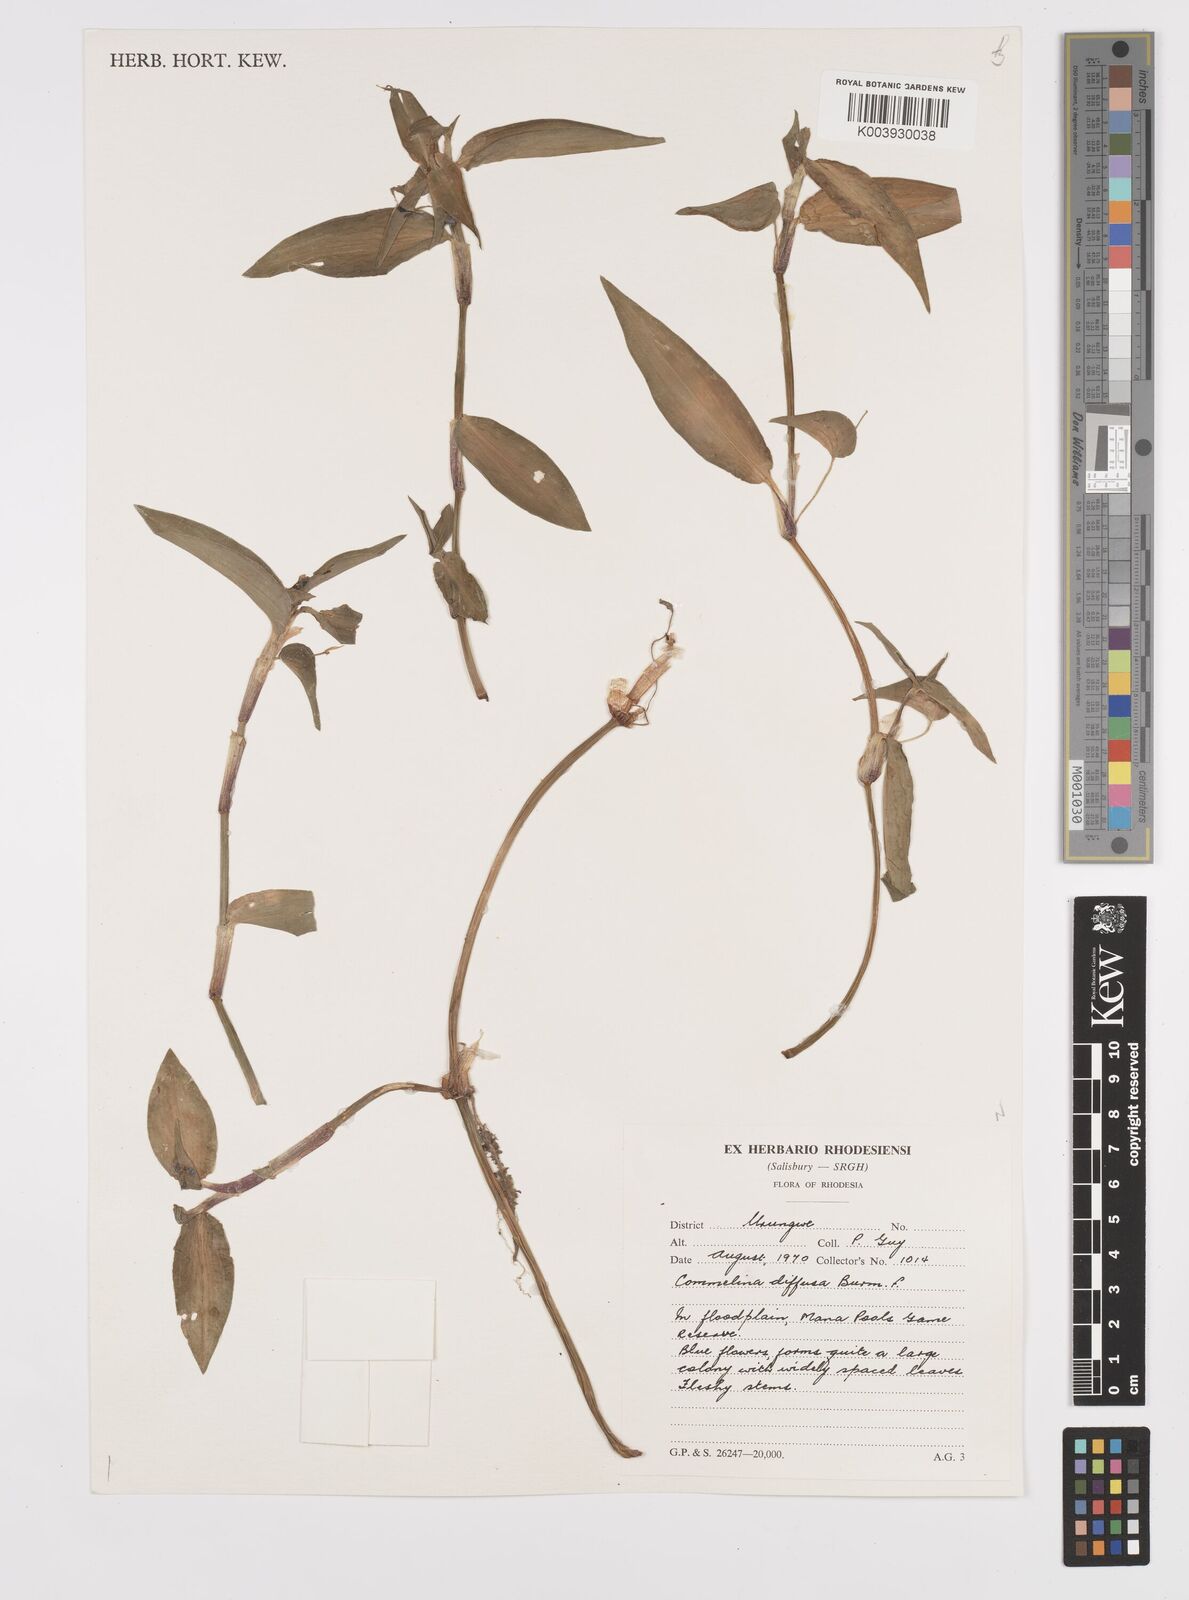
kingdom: Plantae
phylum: Tracheophyta
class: Liliopsida
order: Commelinales
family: Commelinaceae
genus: Commelina
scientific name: Commelina diffusa
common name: Climbing dayflower
